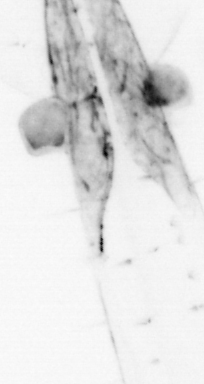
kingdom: Animalia
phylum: Chaetognatha
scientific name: Chaetognatha
